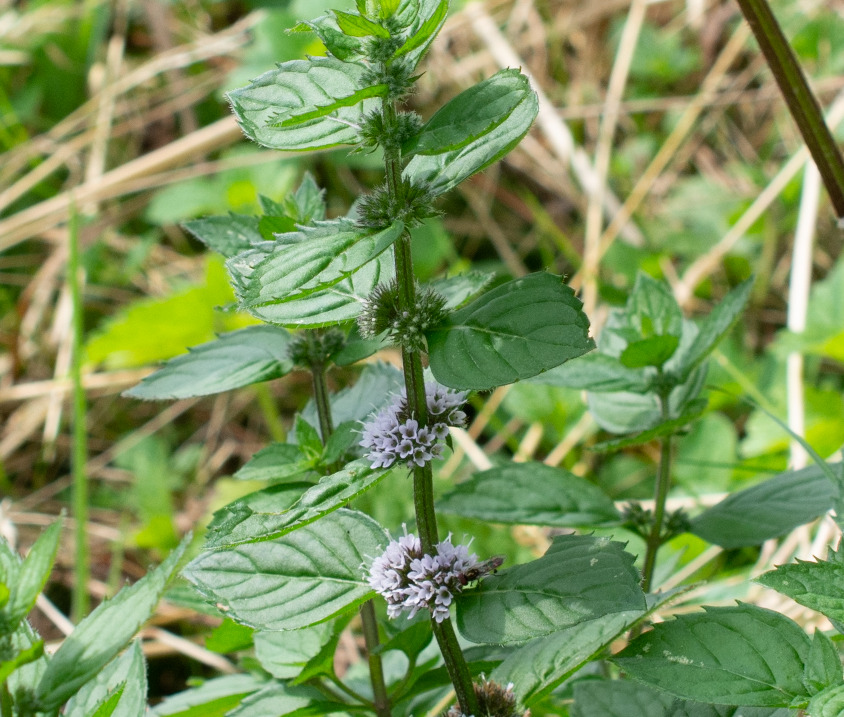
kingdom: Plantae
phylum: Tracheophyta
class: Magnoliopsida
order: Lamiales
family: Lamiaceae
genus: Mentha
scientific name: Mentha verticillata
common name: Krans-mynte
